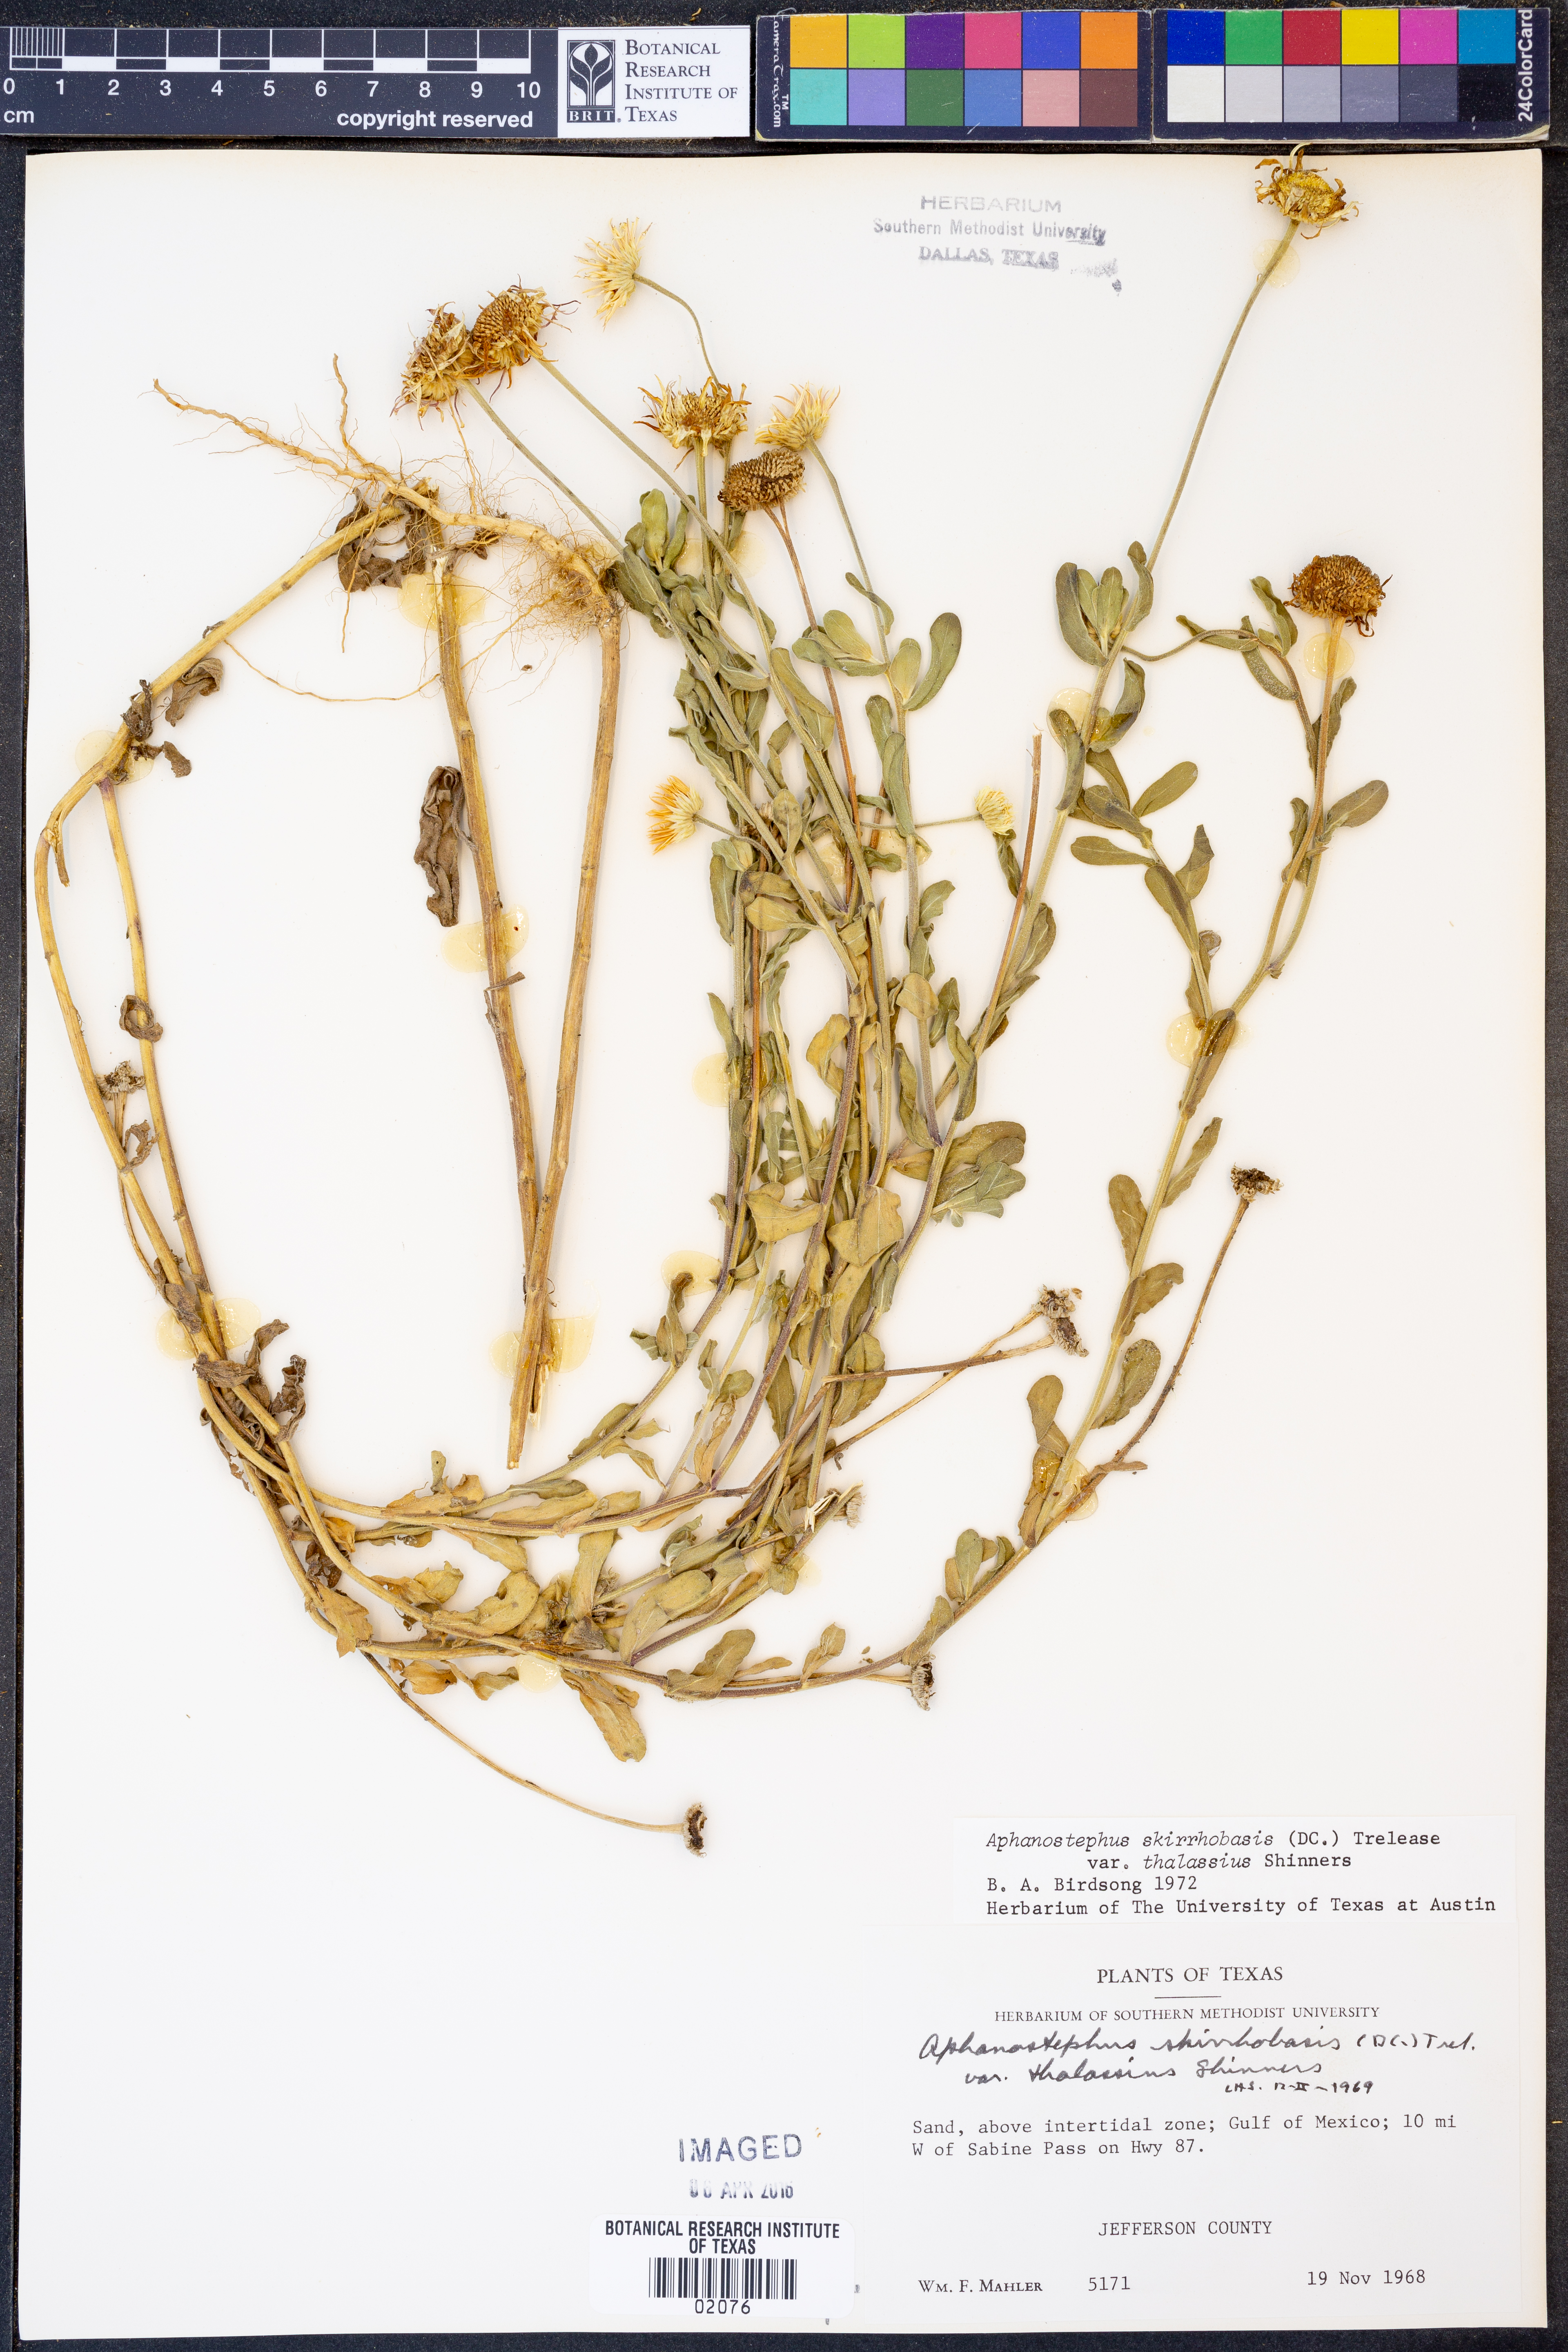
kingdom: Plantae
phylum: Tracheophyta
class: Magnoliopsida
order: Asterales
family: Asteraceae
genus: Aphanostephus
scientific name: Aphanostephus skirrhobasis
